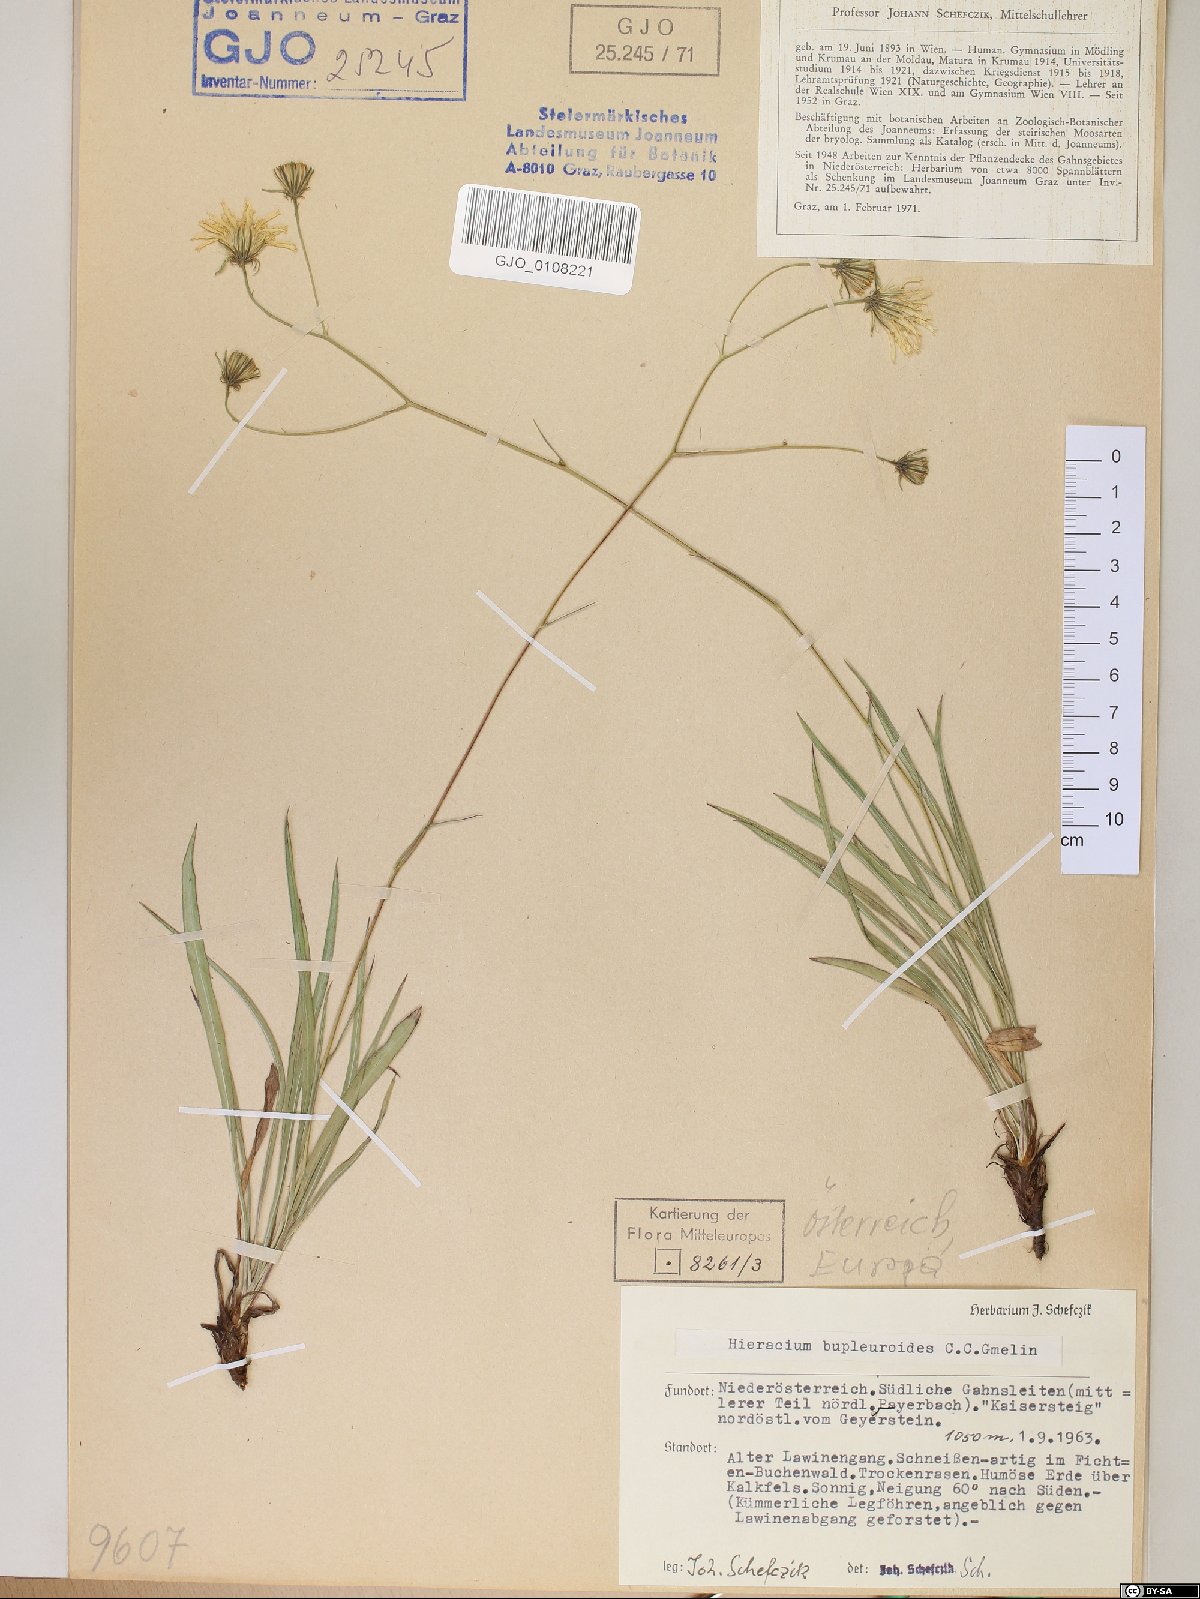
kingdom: Plantae
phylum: Tracheophyta
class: Magnoliopsida
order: Asterales
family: Asteraceae
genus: Hieracium
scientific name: Hieracium bupleuroides
